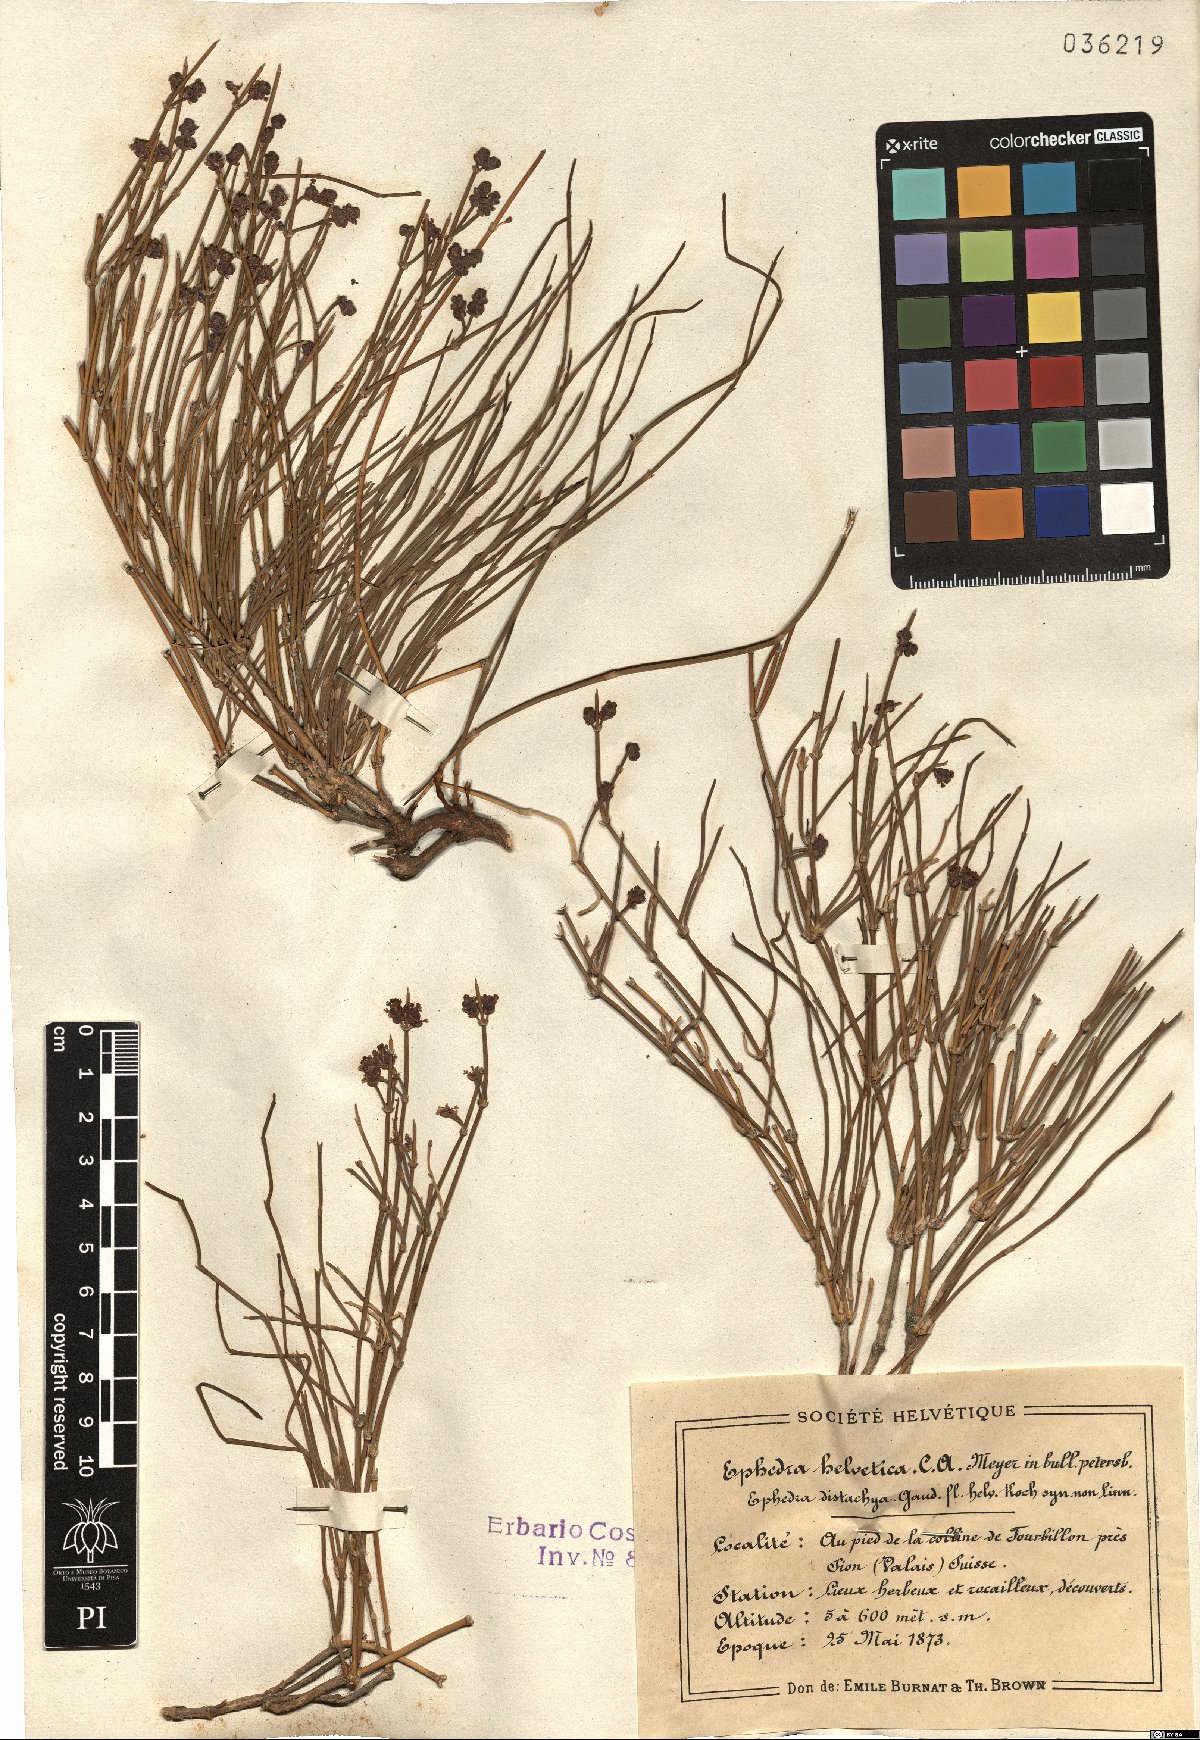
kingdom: Plantae
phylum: Tracheophyta
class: Gnetopsida
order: Ephedrales
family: Ephedraceae
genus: Ephedra
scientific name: Ephedra distachya
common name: Sea grape
